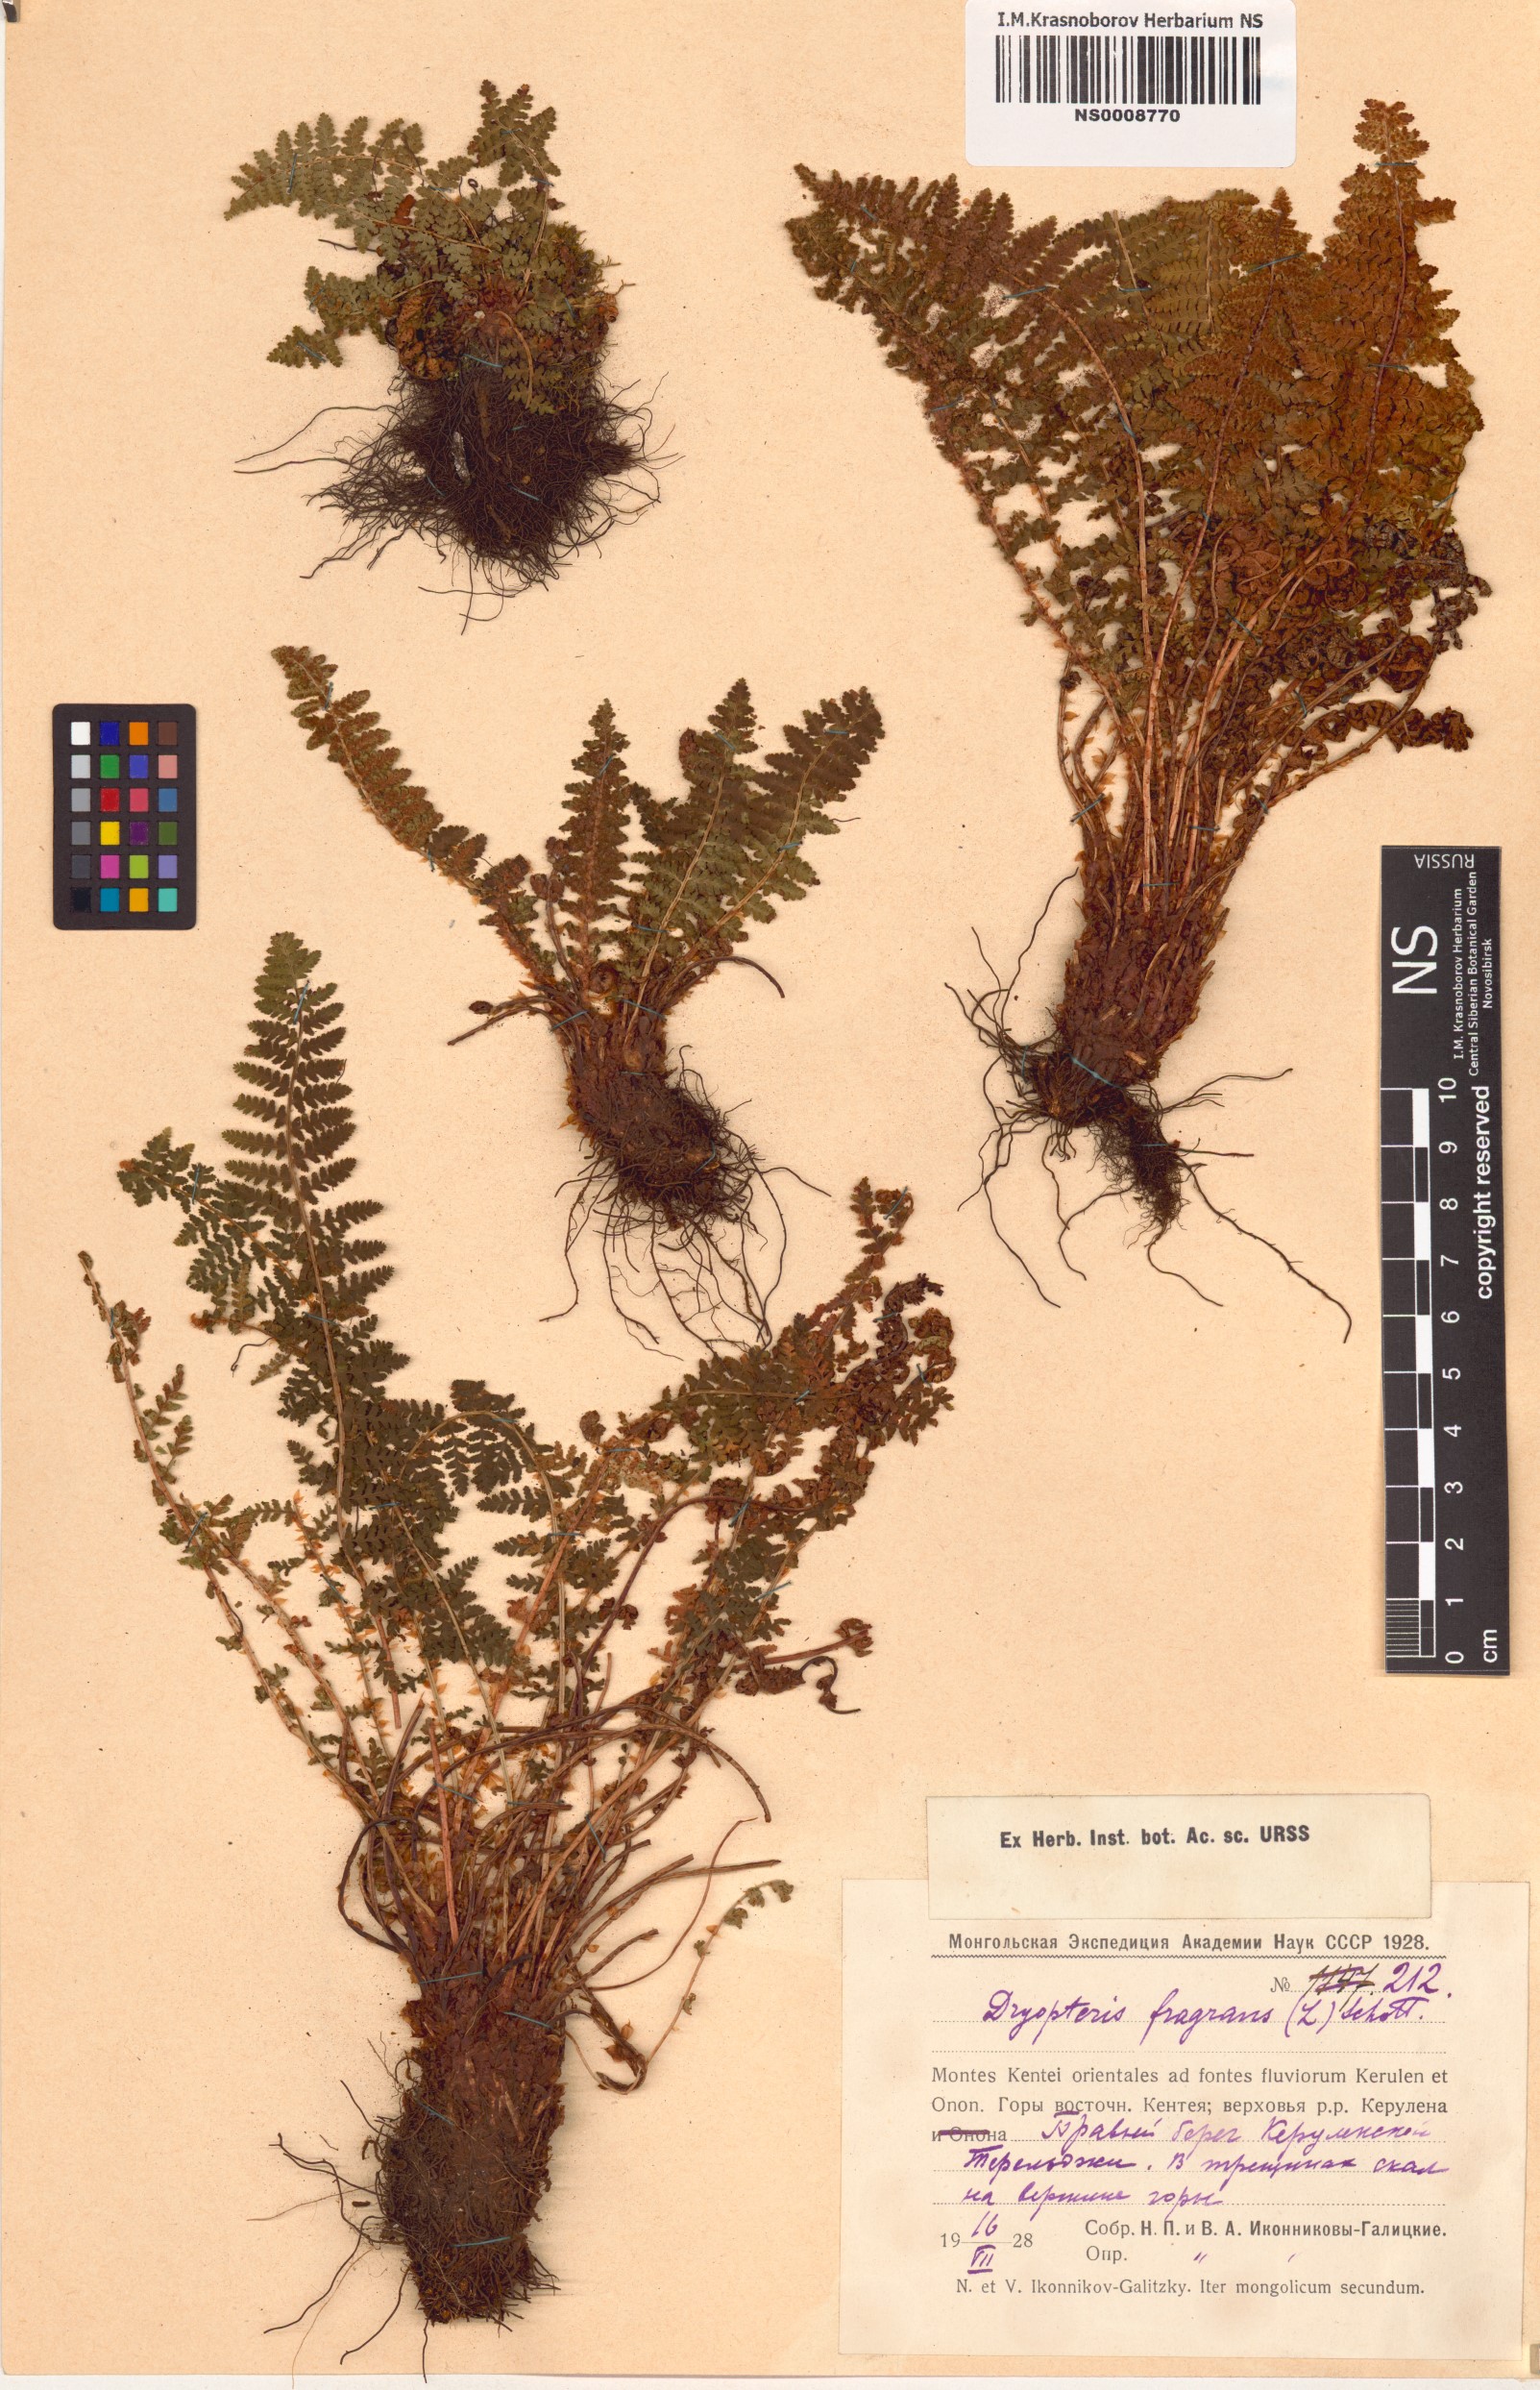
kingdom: Plantae
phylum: Tracheophyta
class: Polypodiopsida
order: Polypodiales
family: Dryopteridaceae
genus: Dryopteris
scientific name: Dryopteris fragrans
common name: Fragrant wood fern
